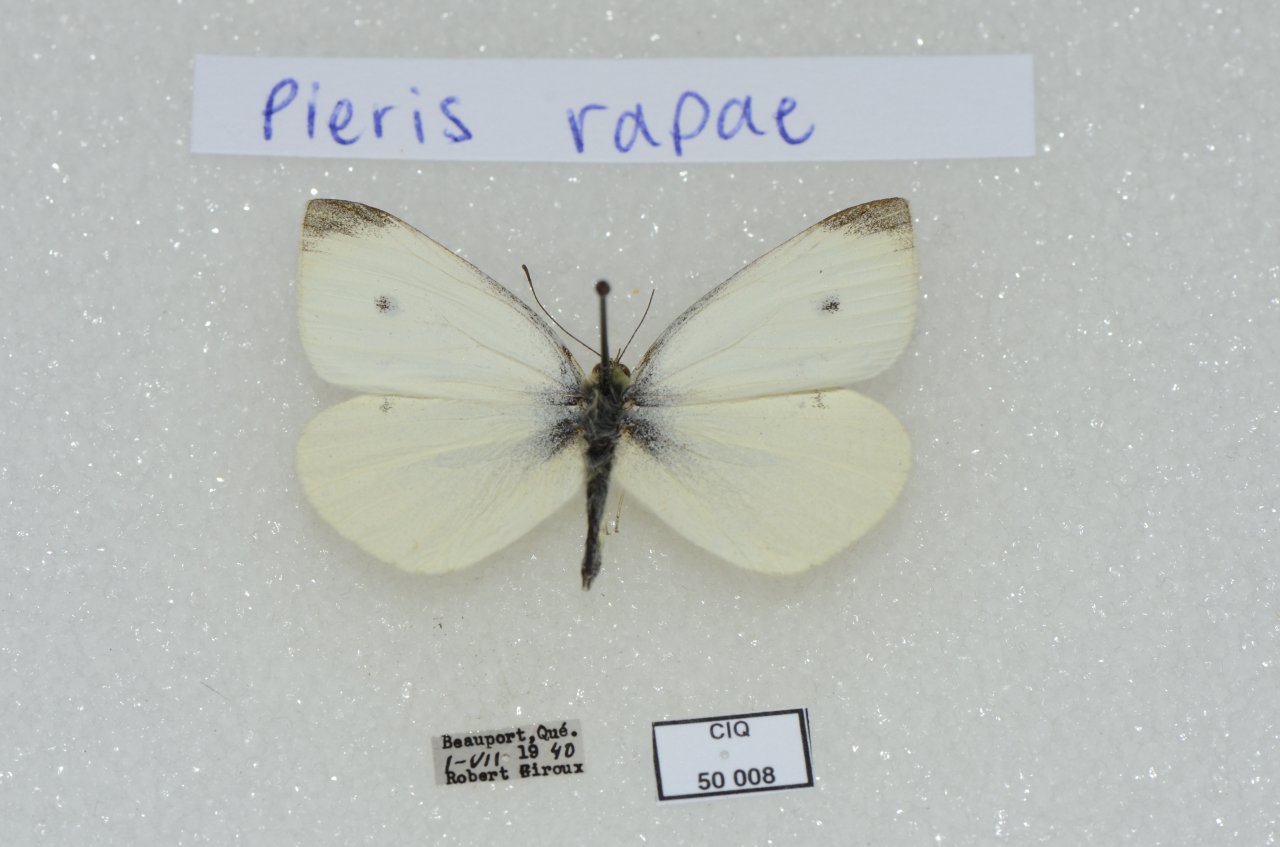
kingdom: Animalia
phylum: Arthropoda
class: Insecta
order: Lepidoptera
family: Pieridae
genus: Pieris
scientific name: Pieris rapae
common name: Cabbage White
